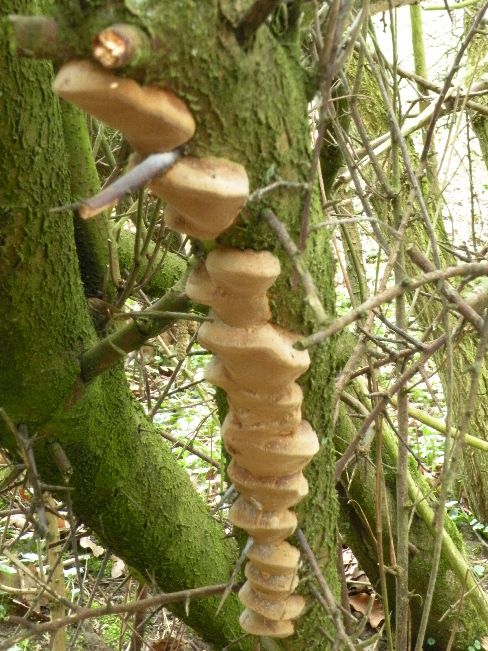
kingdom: Fungi
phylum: Basidiomycota
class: Agaricomycetes
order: Hymenochaetales
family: Hymenochaetaceae
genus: Phellinus
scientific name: Phellinus pomaceus
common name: blomme-ildporesvamp
